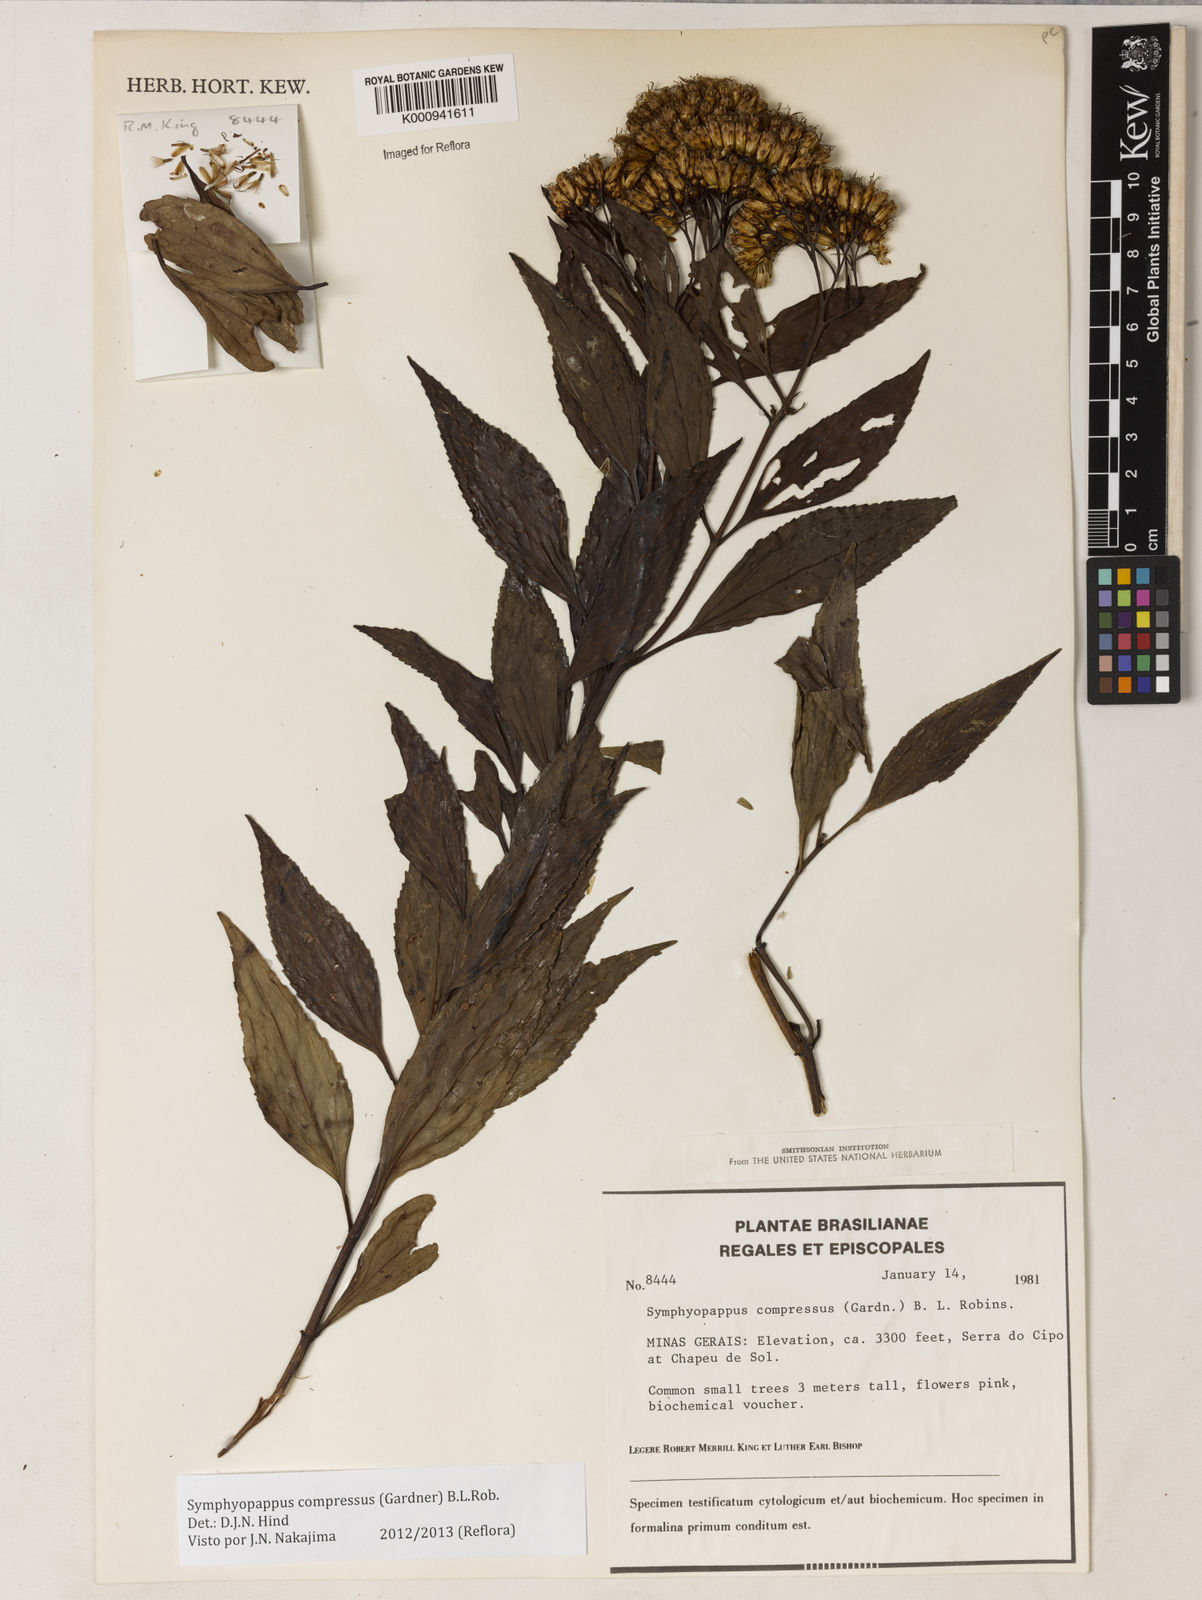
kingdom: Plantae
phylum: Tracheophyta
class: Magnoliopsida
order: Asterales
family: Asteraceae
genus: Symphyopappus
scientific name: Symphyopappus compressus
